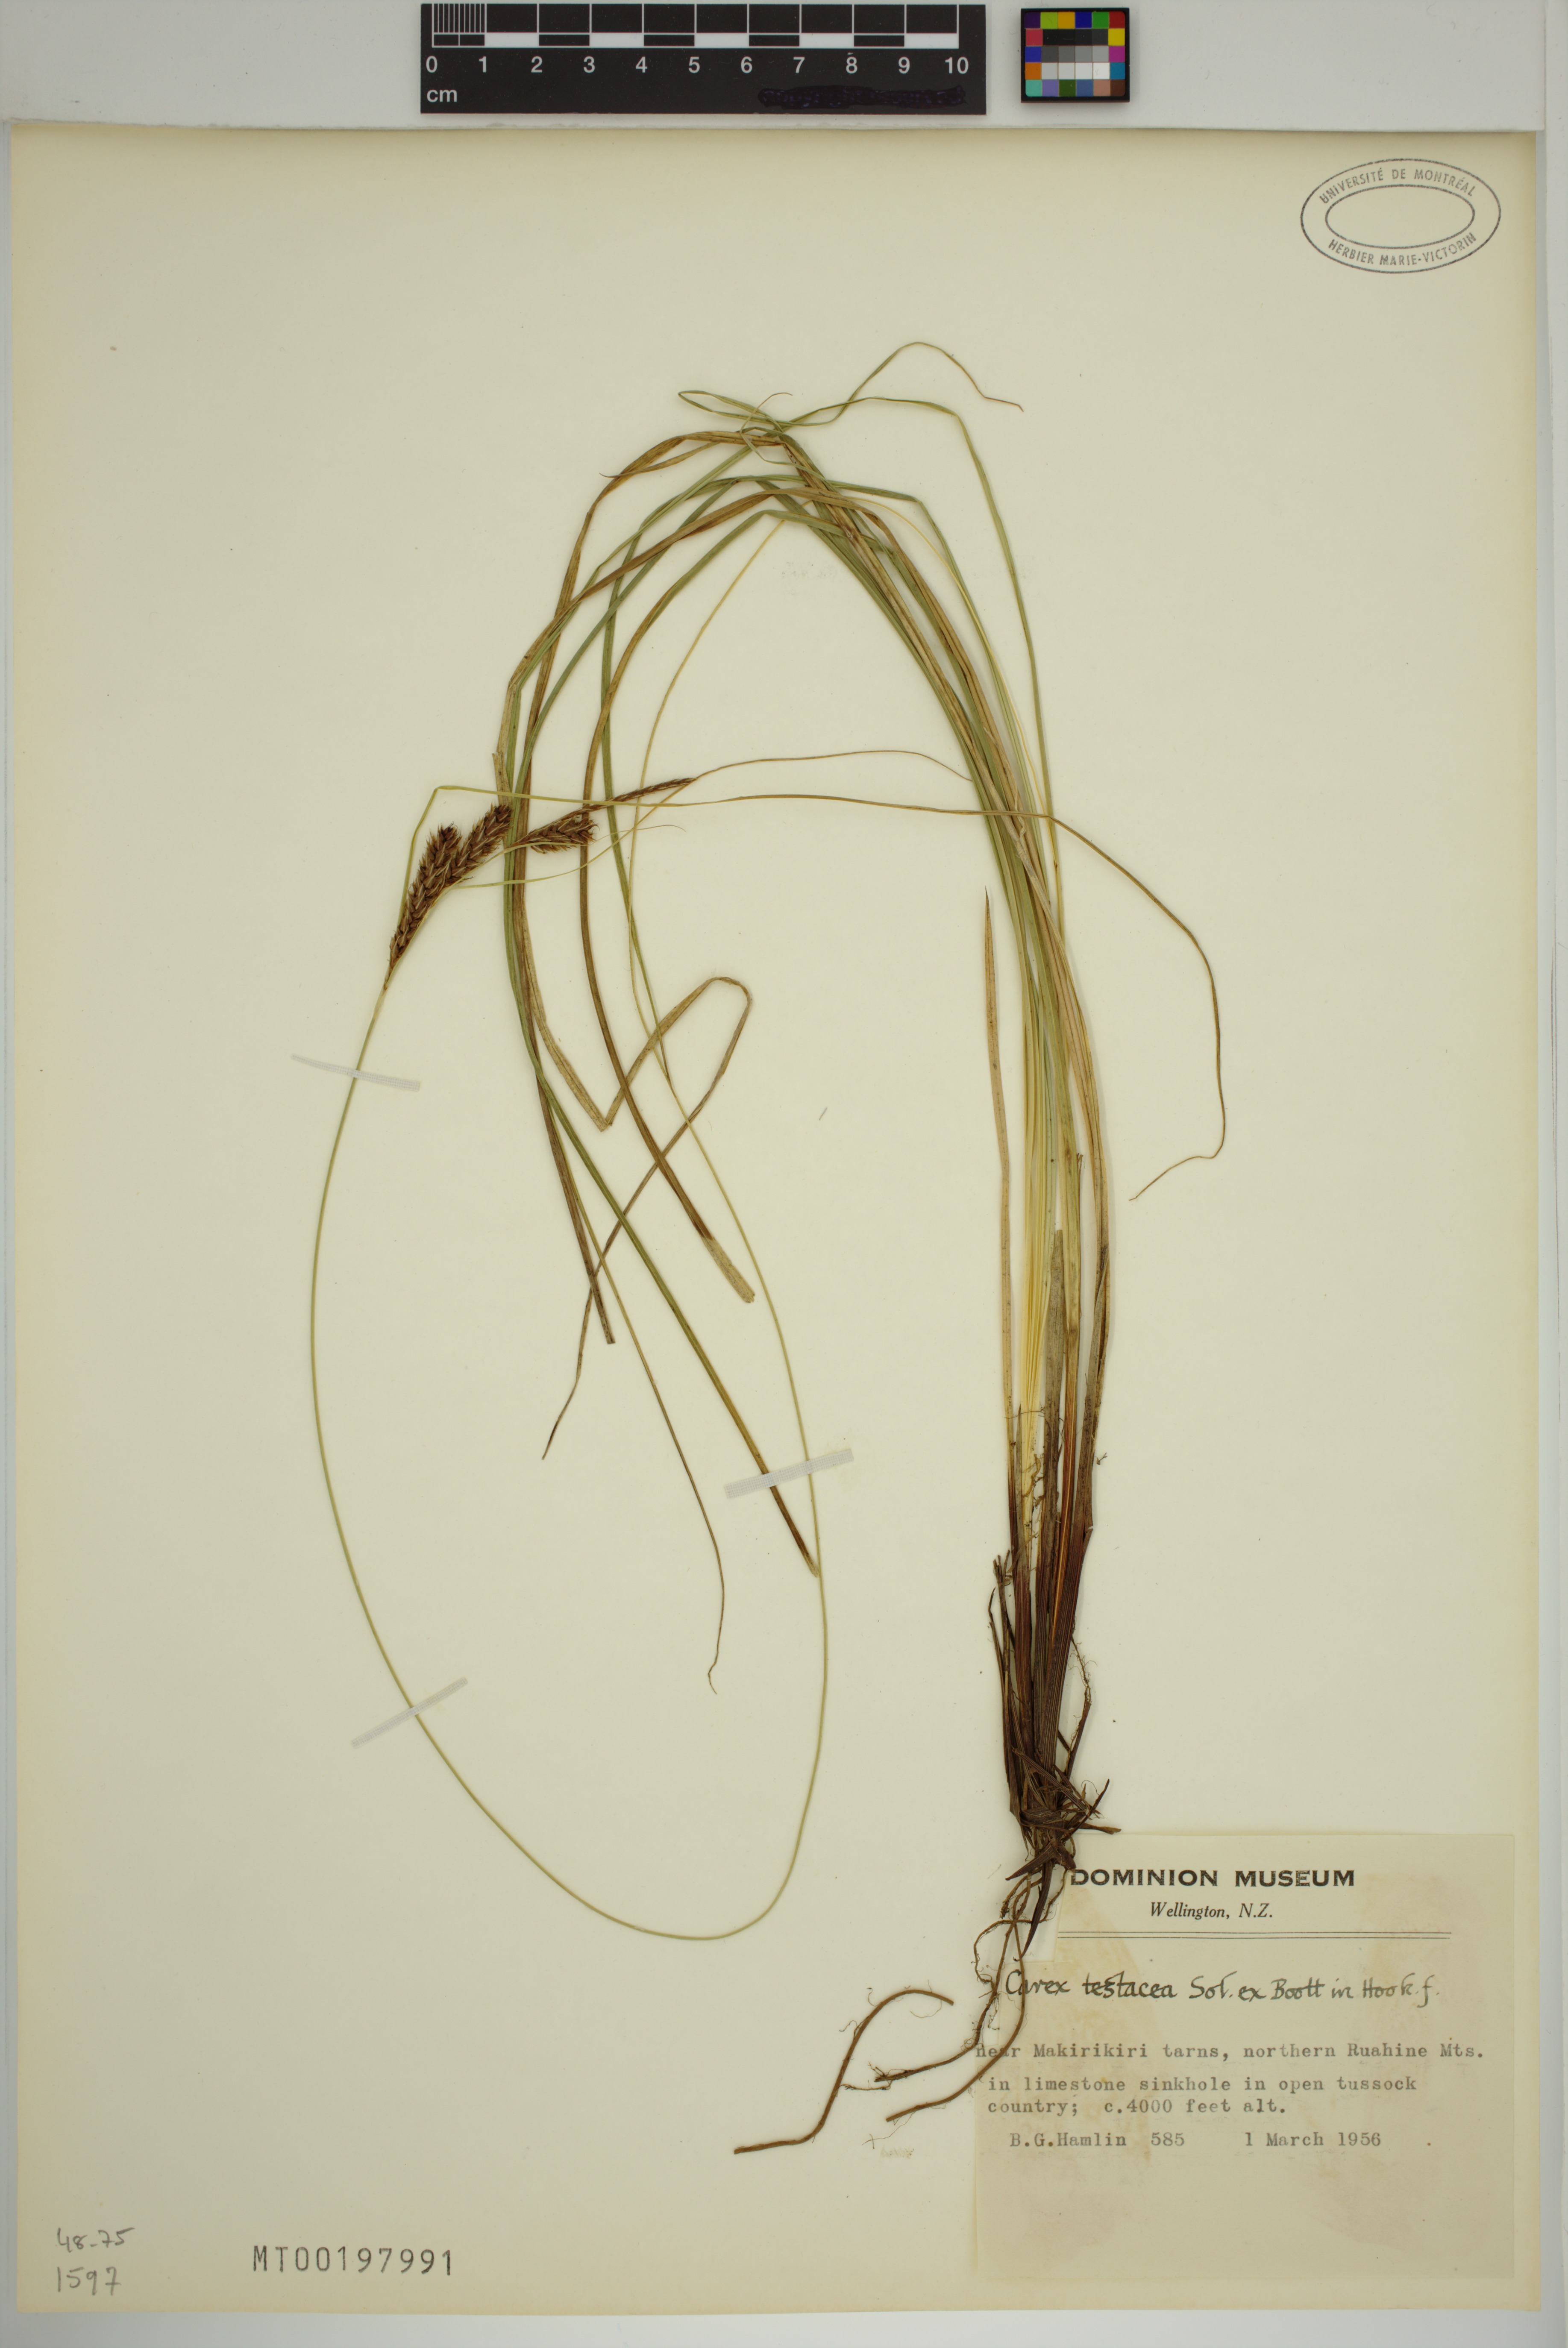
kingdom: Plantae
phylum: Tracheophyta
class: Liliopsida
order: Poales
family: Cyperaceae
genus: Carex
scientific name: Carex testacea
